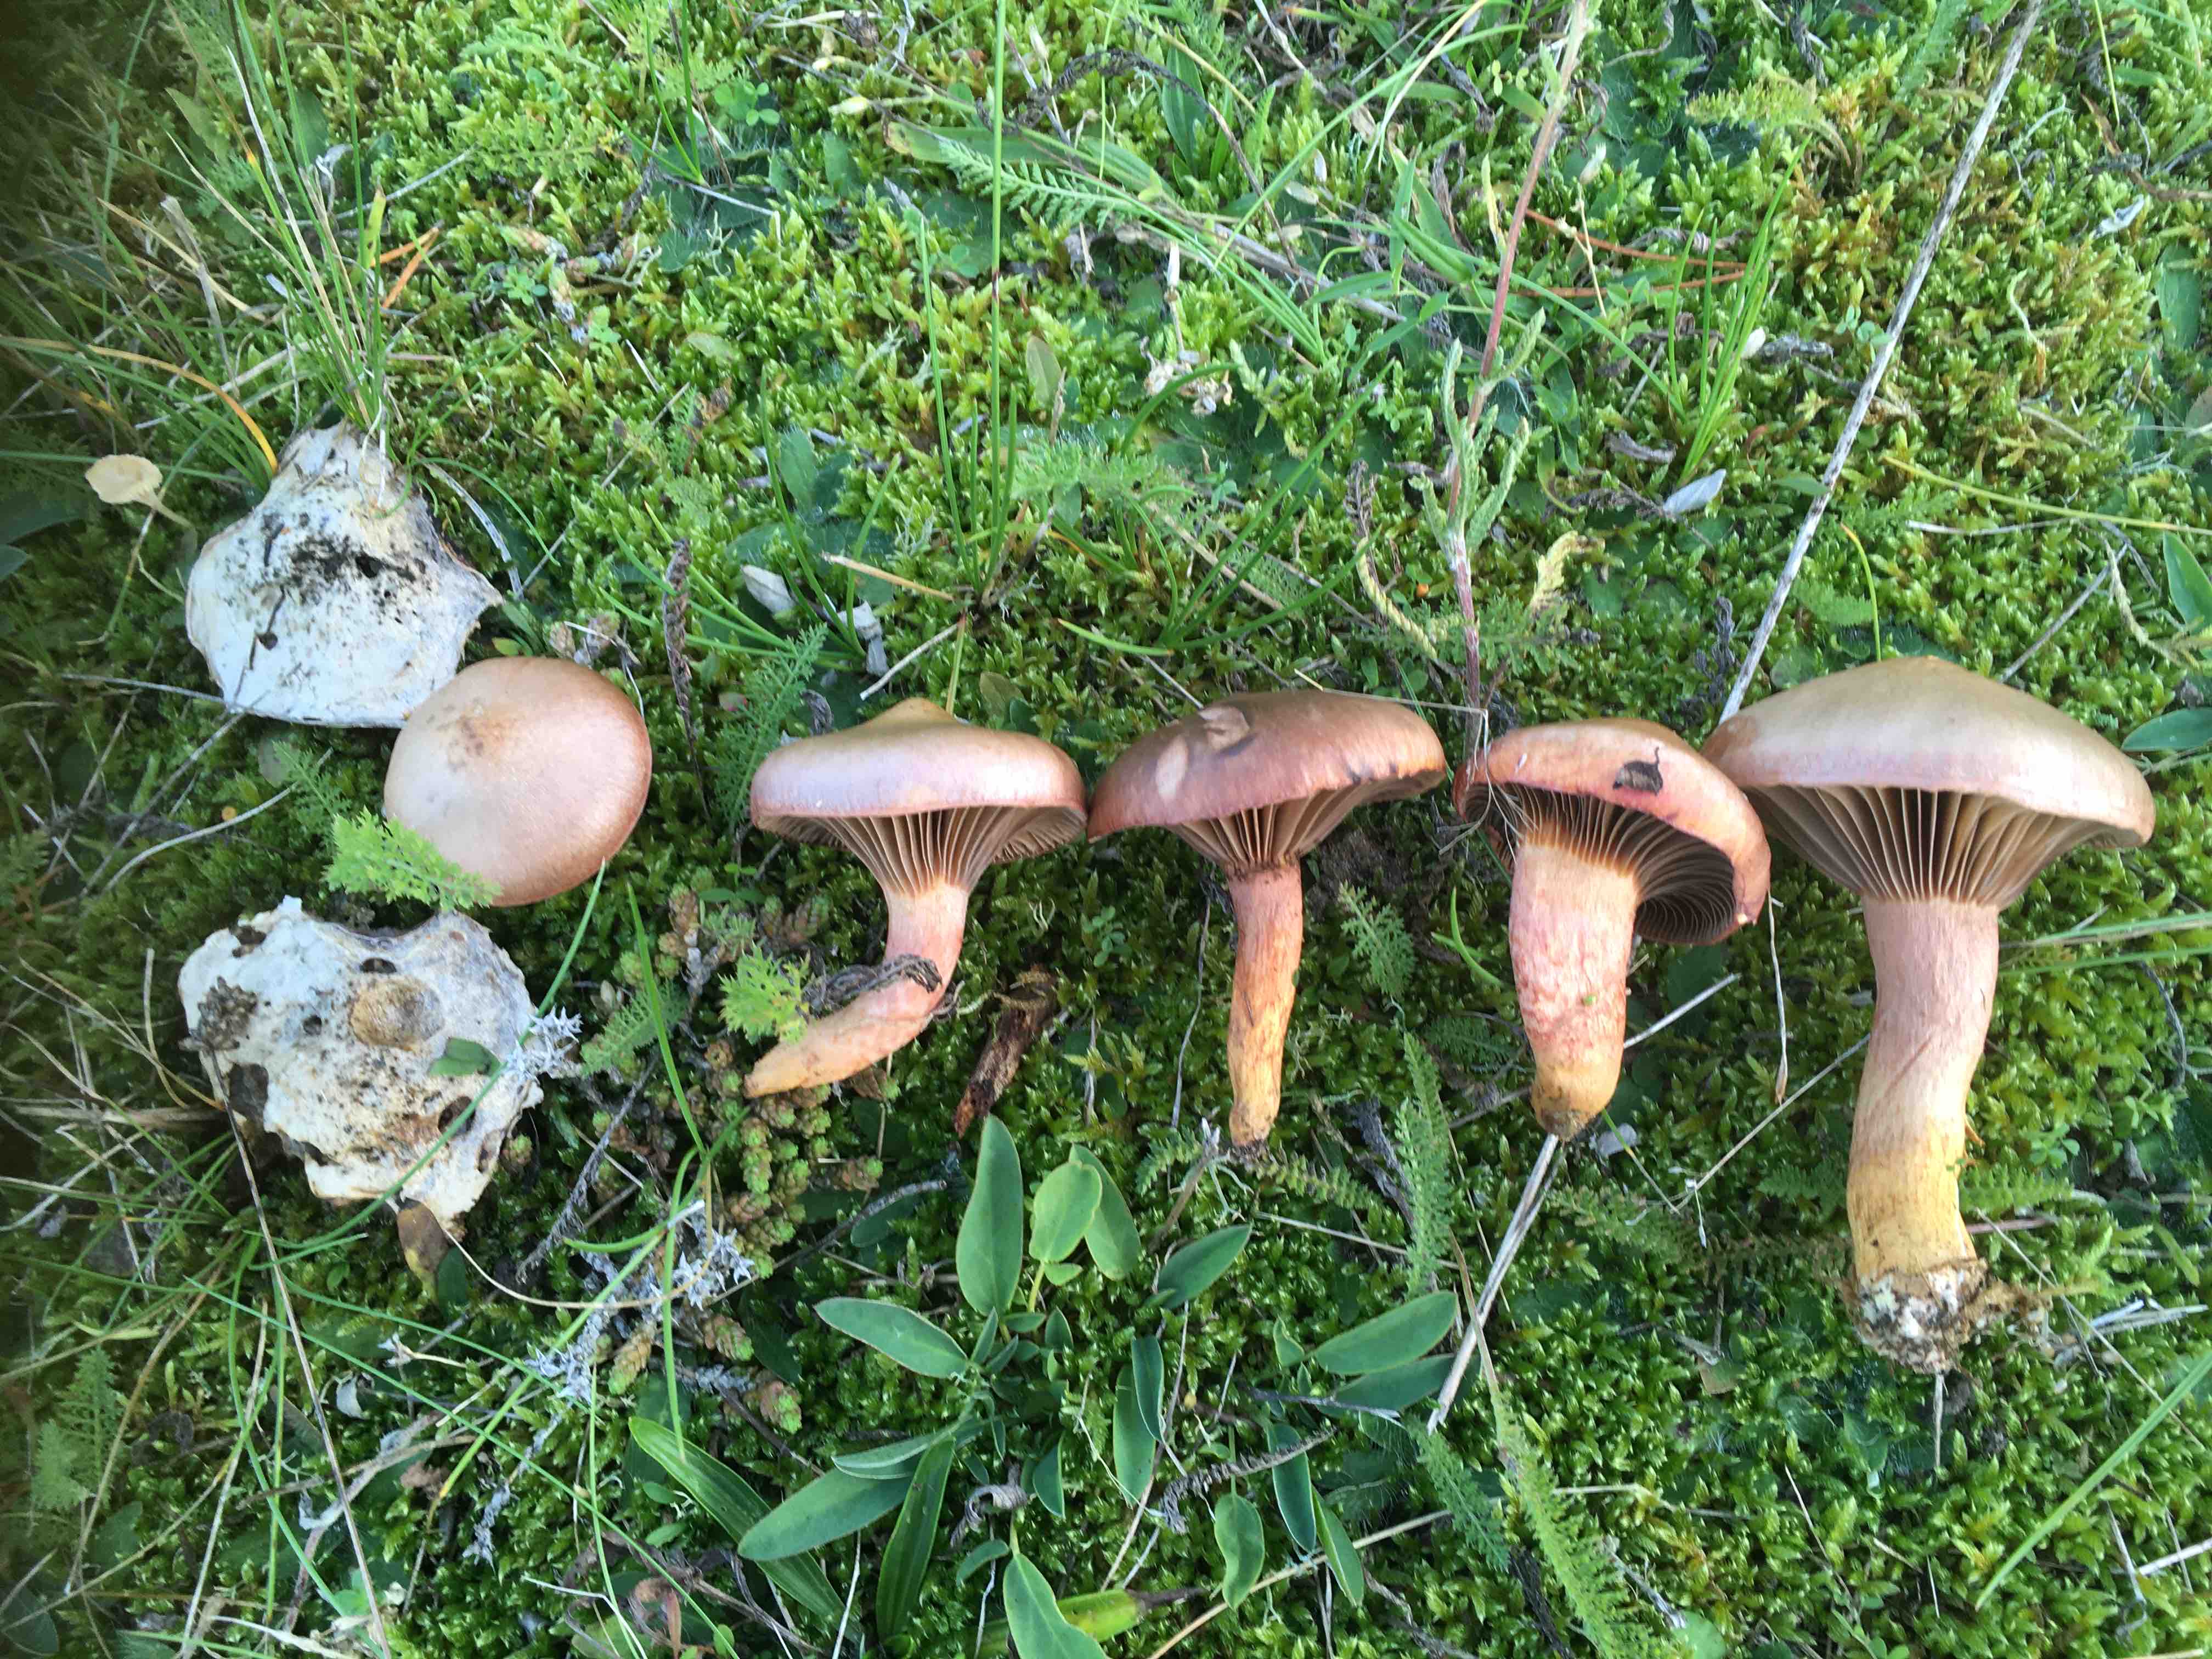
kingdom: Fungi
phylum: Basidiomycota
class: Agaricomycetes
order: Boletales
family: Gomphidiaceae
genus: Chroogomphus
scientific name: Chroogomphus
